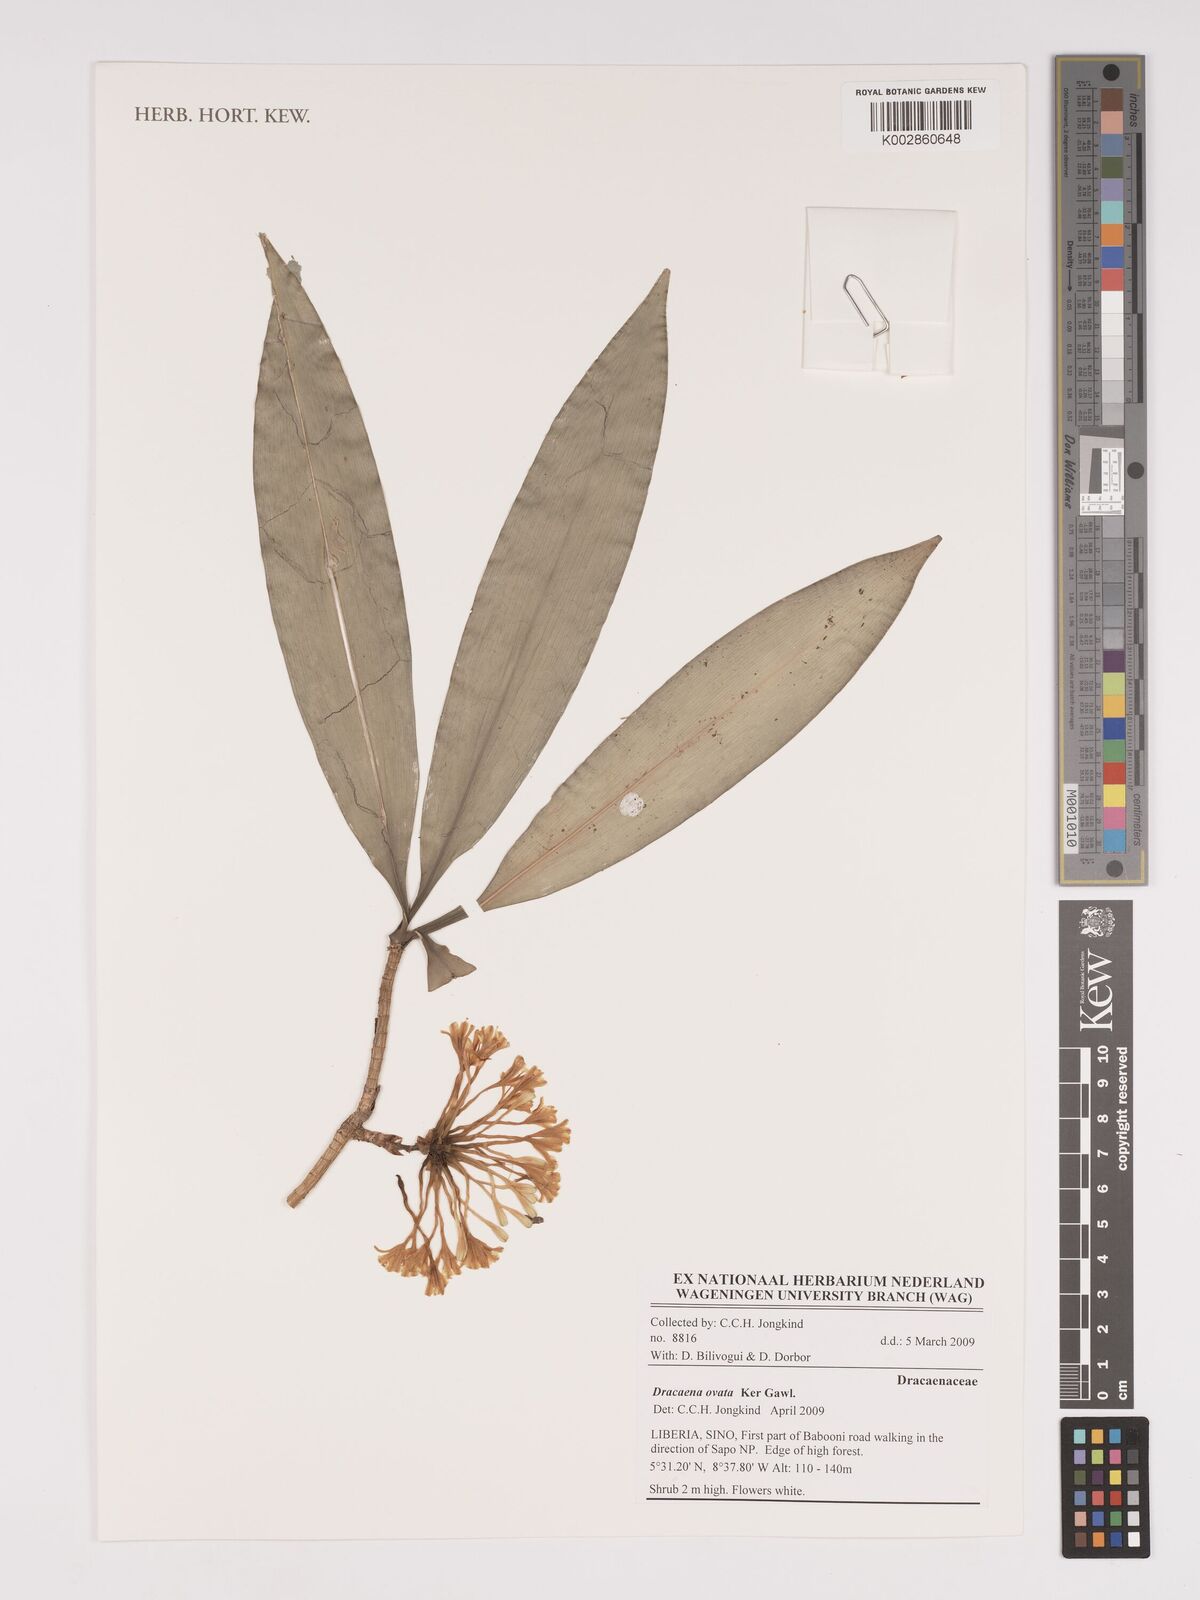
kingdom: Plantae
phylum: Tracheophyta
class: Liliopsida
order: Asparagales
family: Asparagaceae
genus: Dracaena
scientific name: Dracaena ovata
